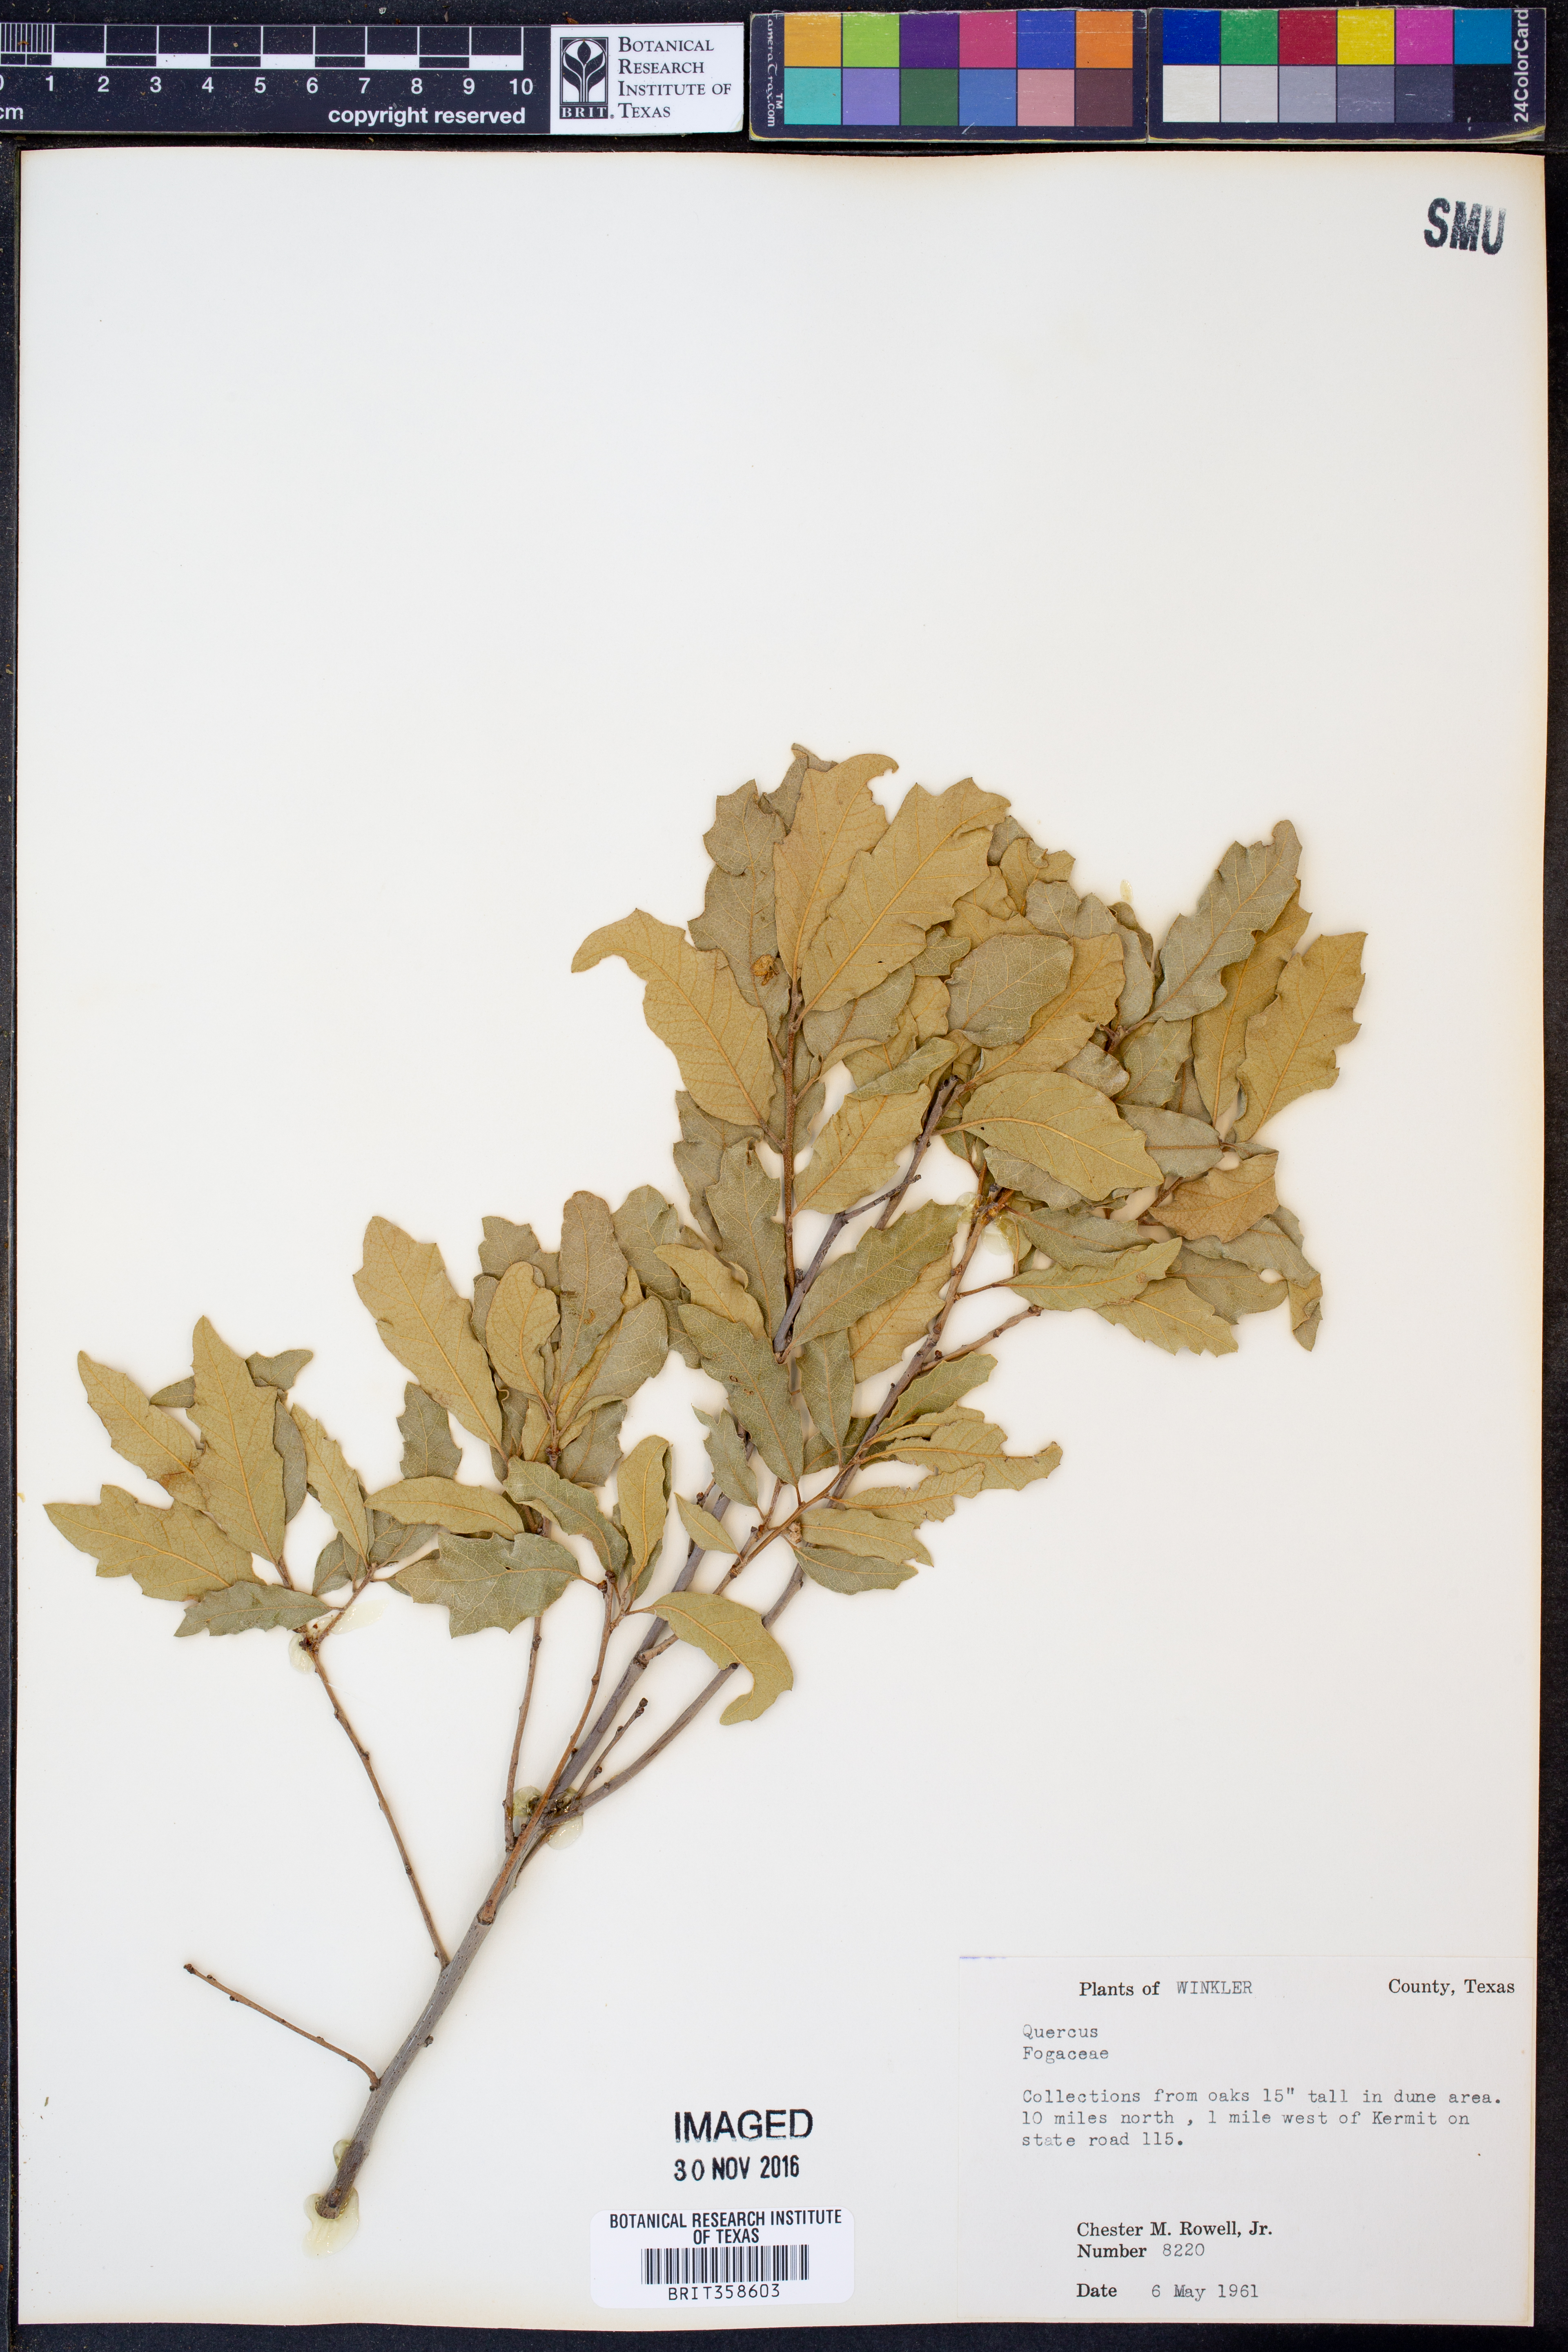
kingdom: Plantae
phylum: Tracheophyta
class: Magnoliopsida
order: Fagales
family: Fagaceae
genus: Quercus
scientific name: Quercus
